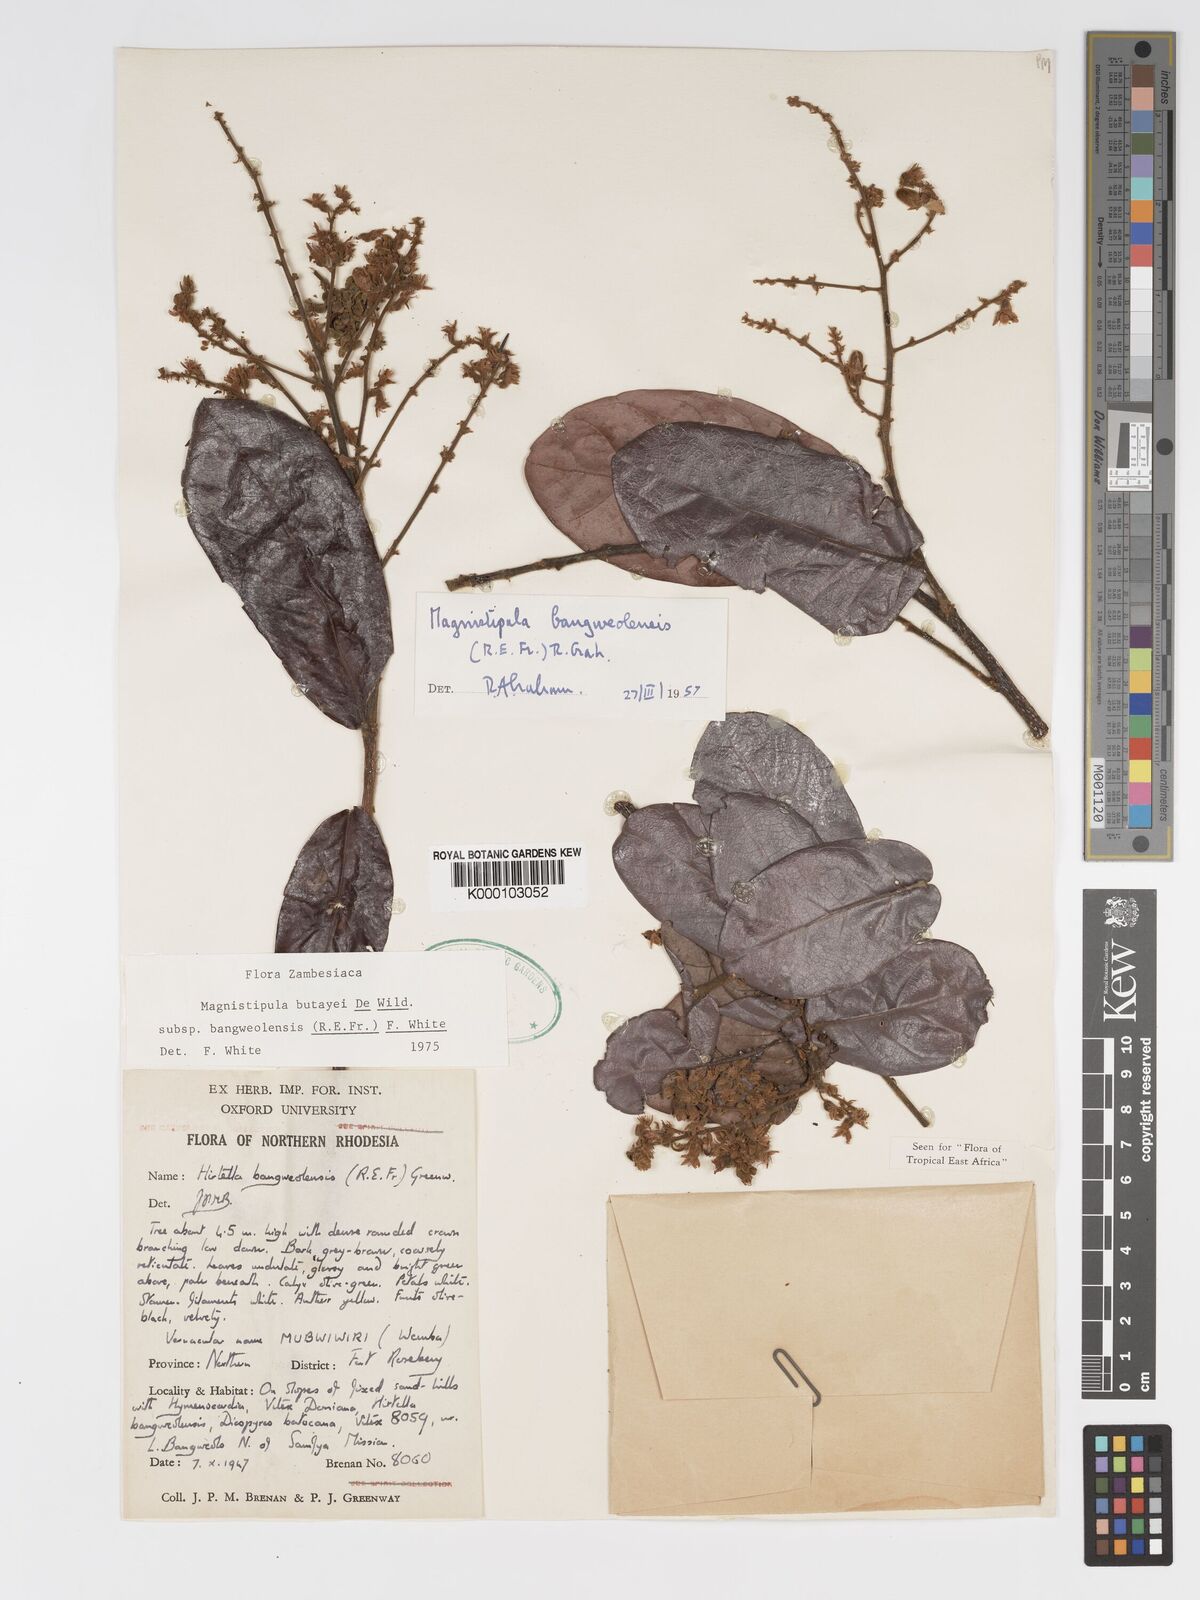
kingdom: Plantae
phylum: Tracheophyta
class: Magnoliopsida
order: Malpighiales
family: Chrysobalanaceae
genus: Magnistipula
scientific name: Magnistipula butayei
